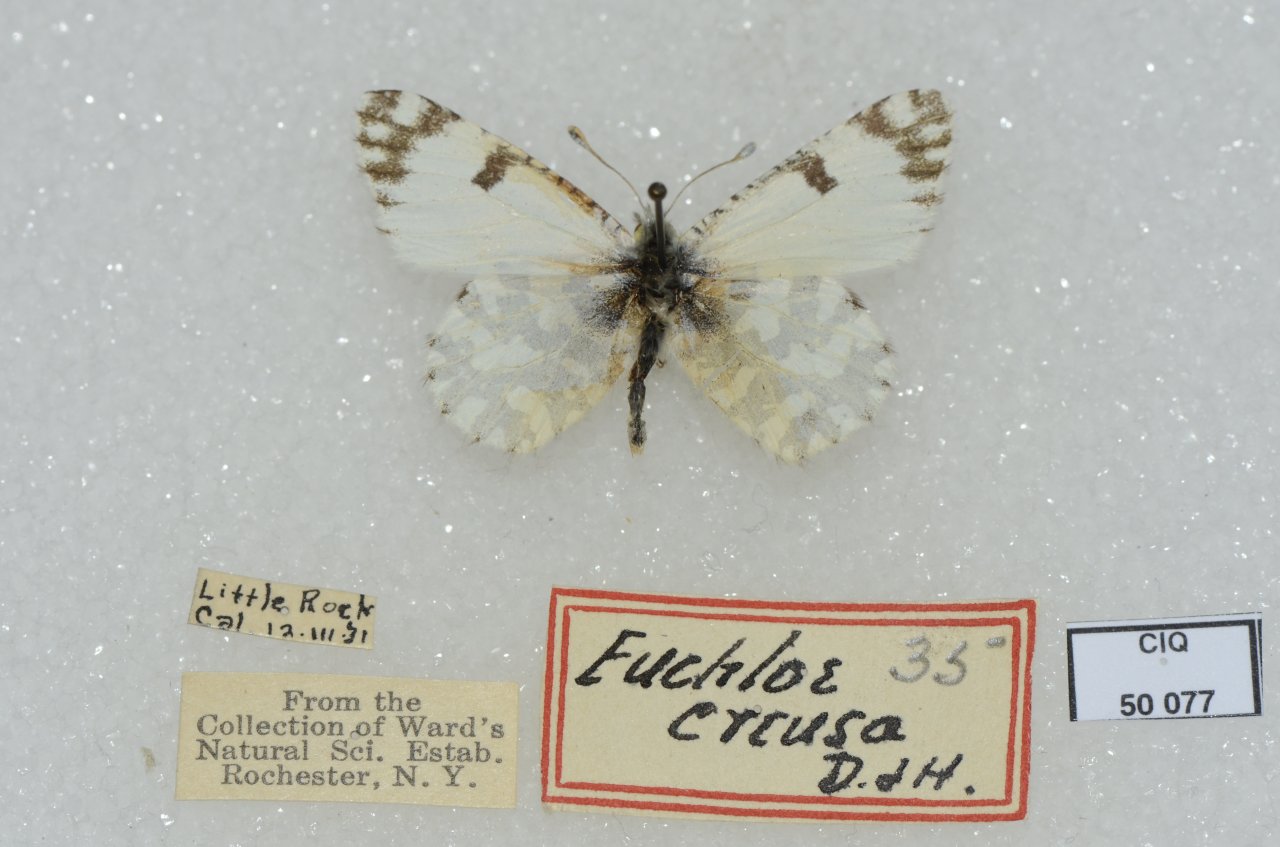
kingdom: Animalia
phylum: Arthropoda
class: Insecta
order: Lepidoptera
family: Pieridae
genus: Euchloe
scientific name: Euchloe hyantis
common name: California Marble
